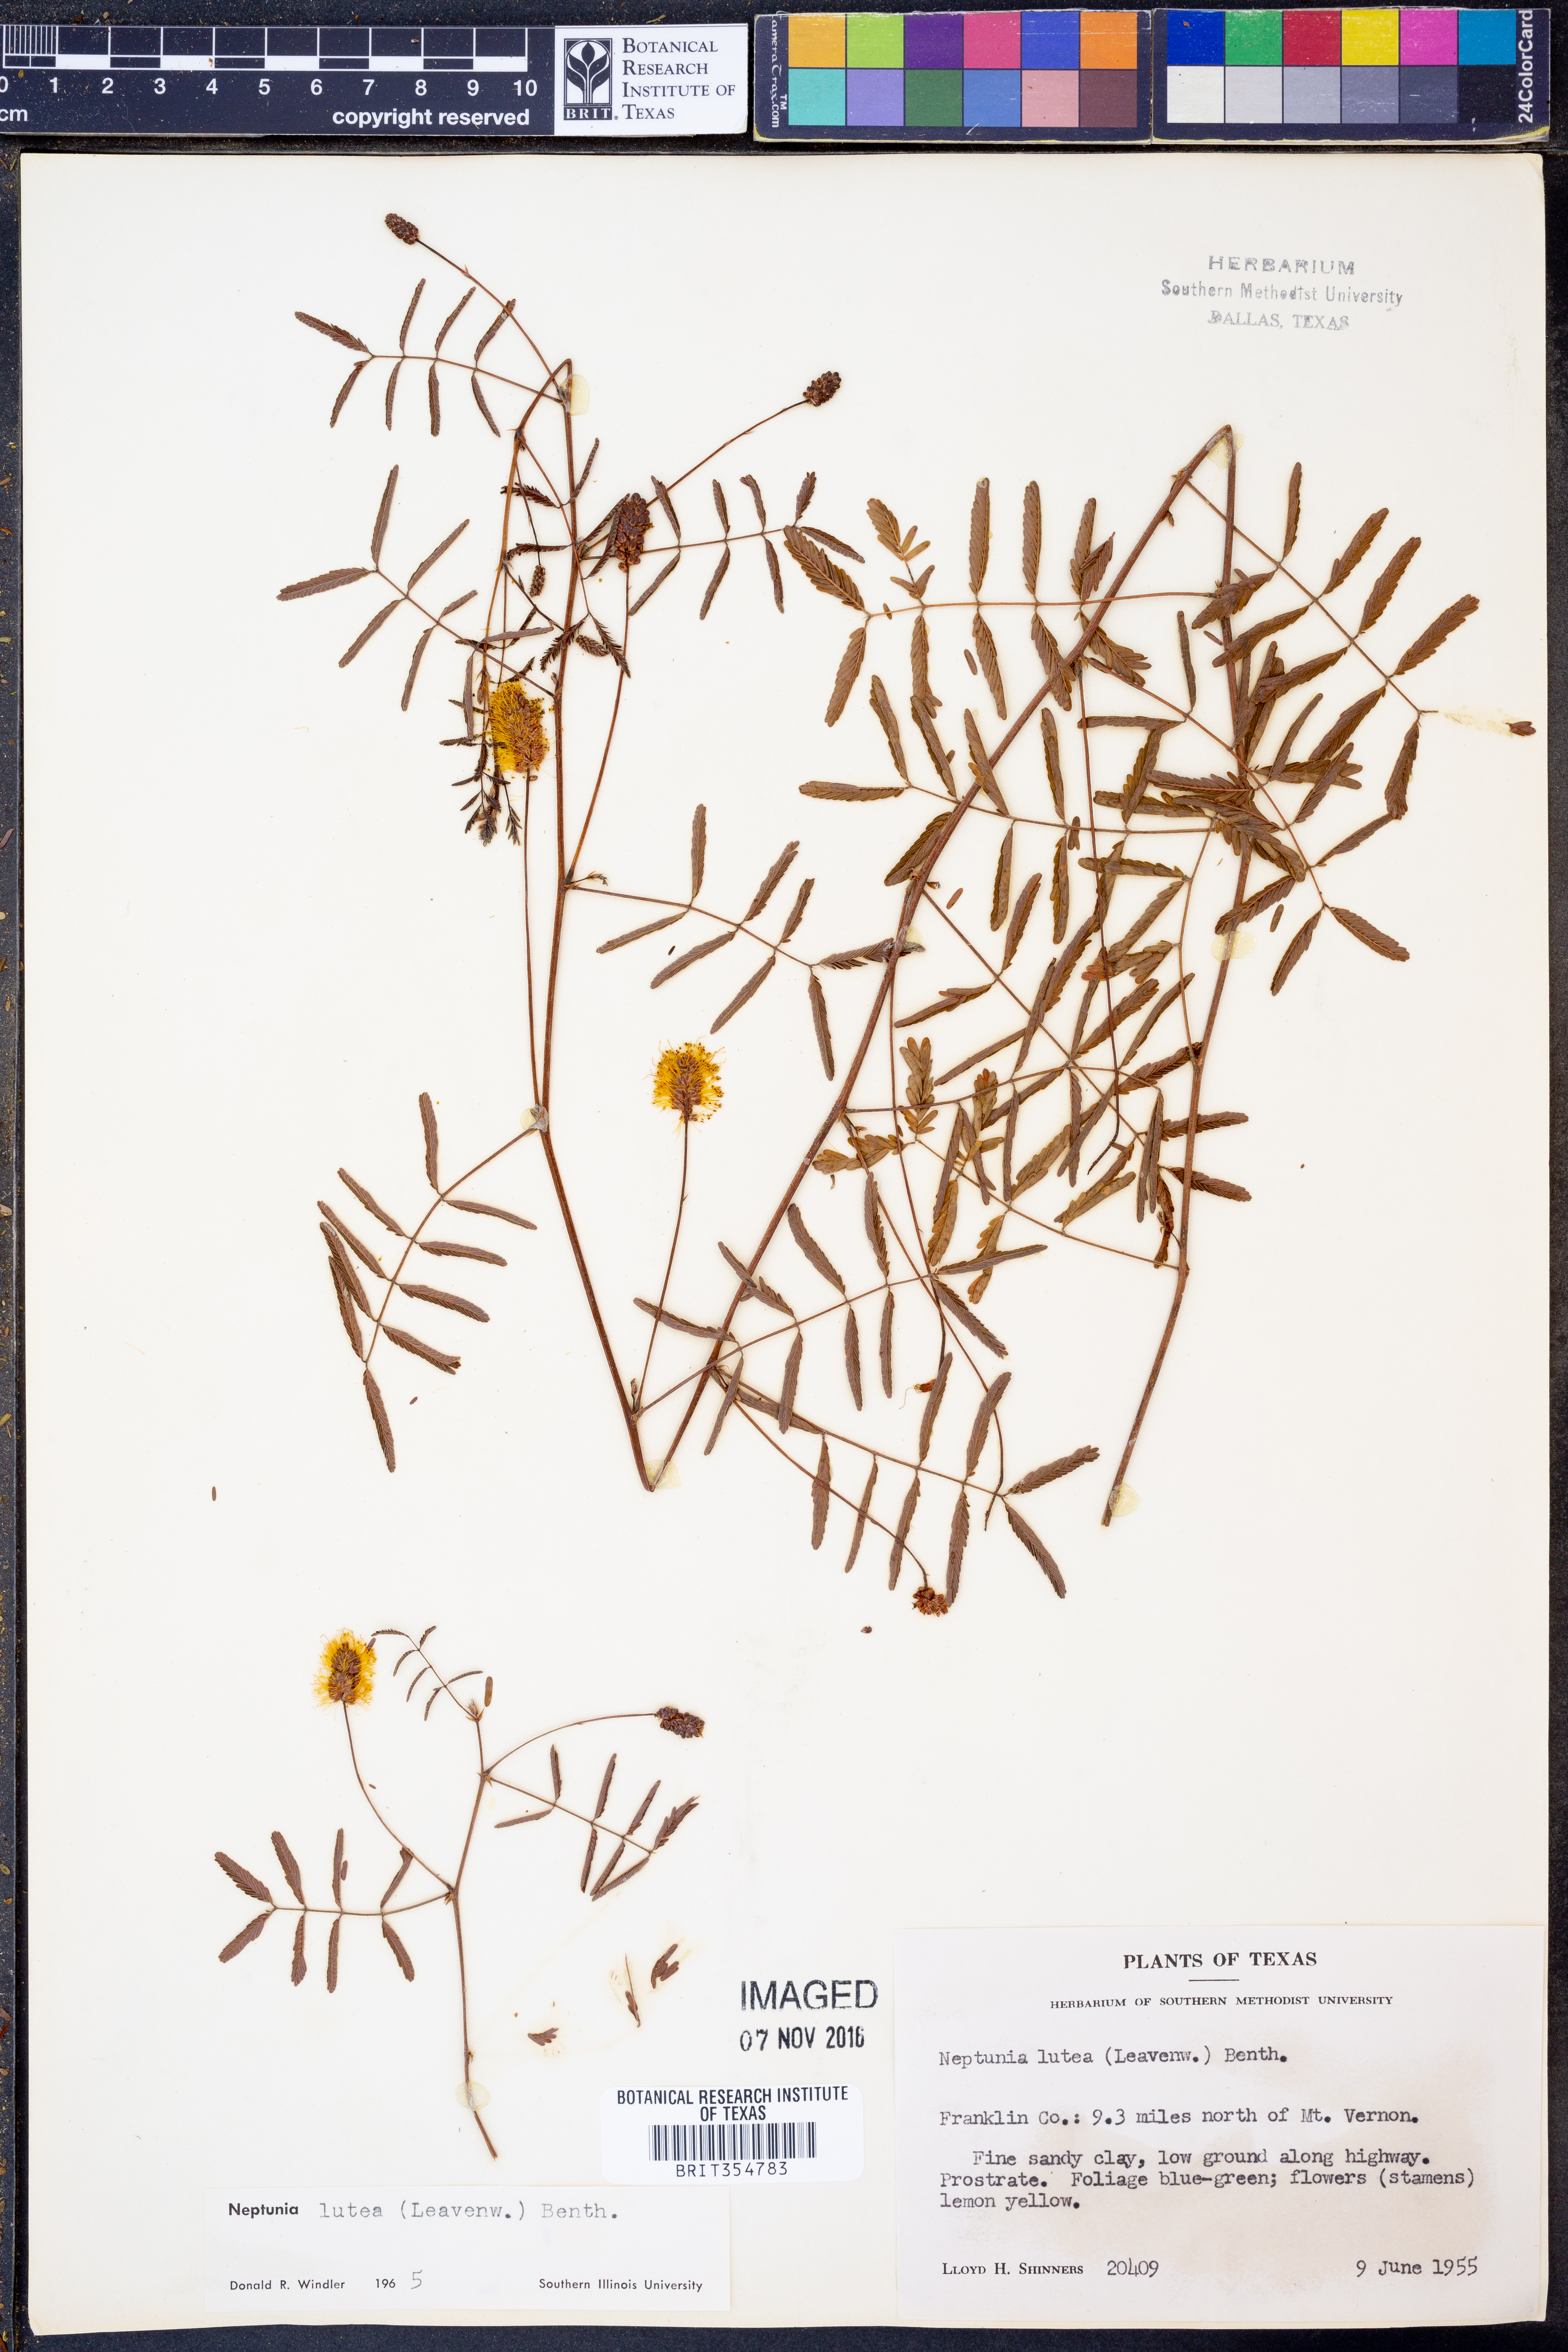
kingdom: Plantae
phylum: Tracheophyta
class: Magnoliopsida
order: Fabales
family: Fabaceae
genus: Neptunia
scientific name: Neptunia lutea
